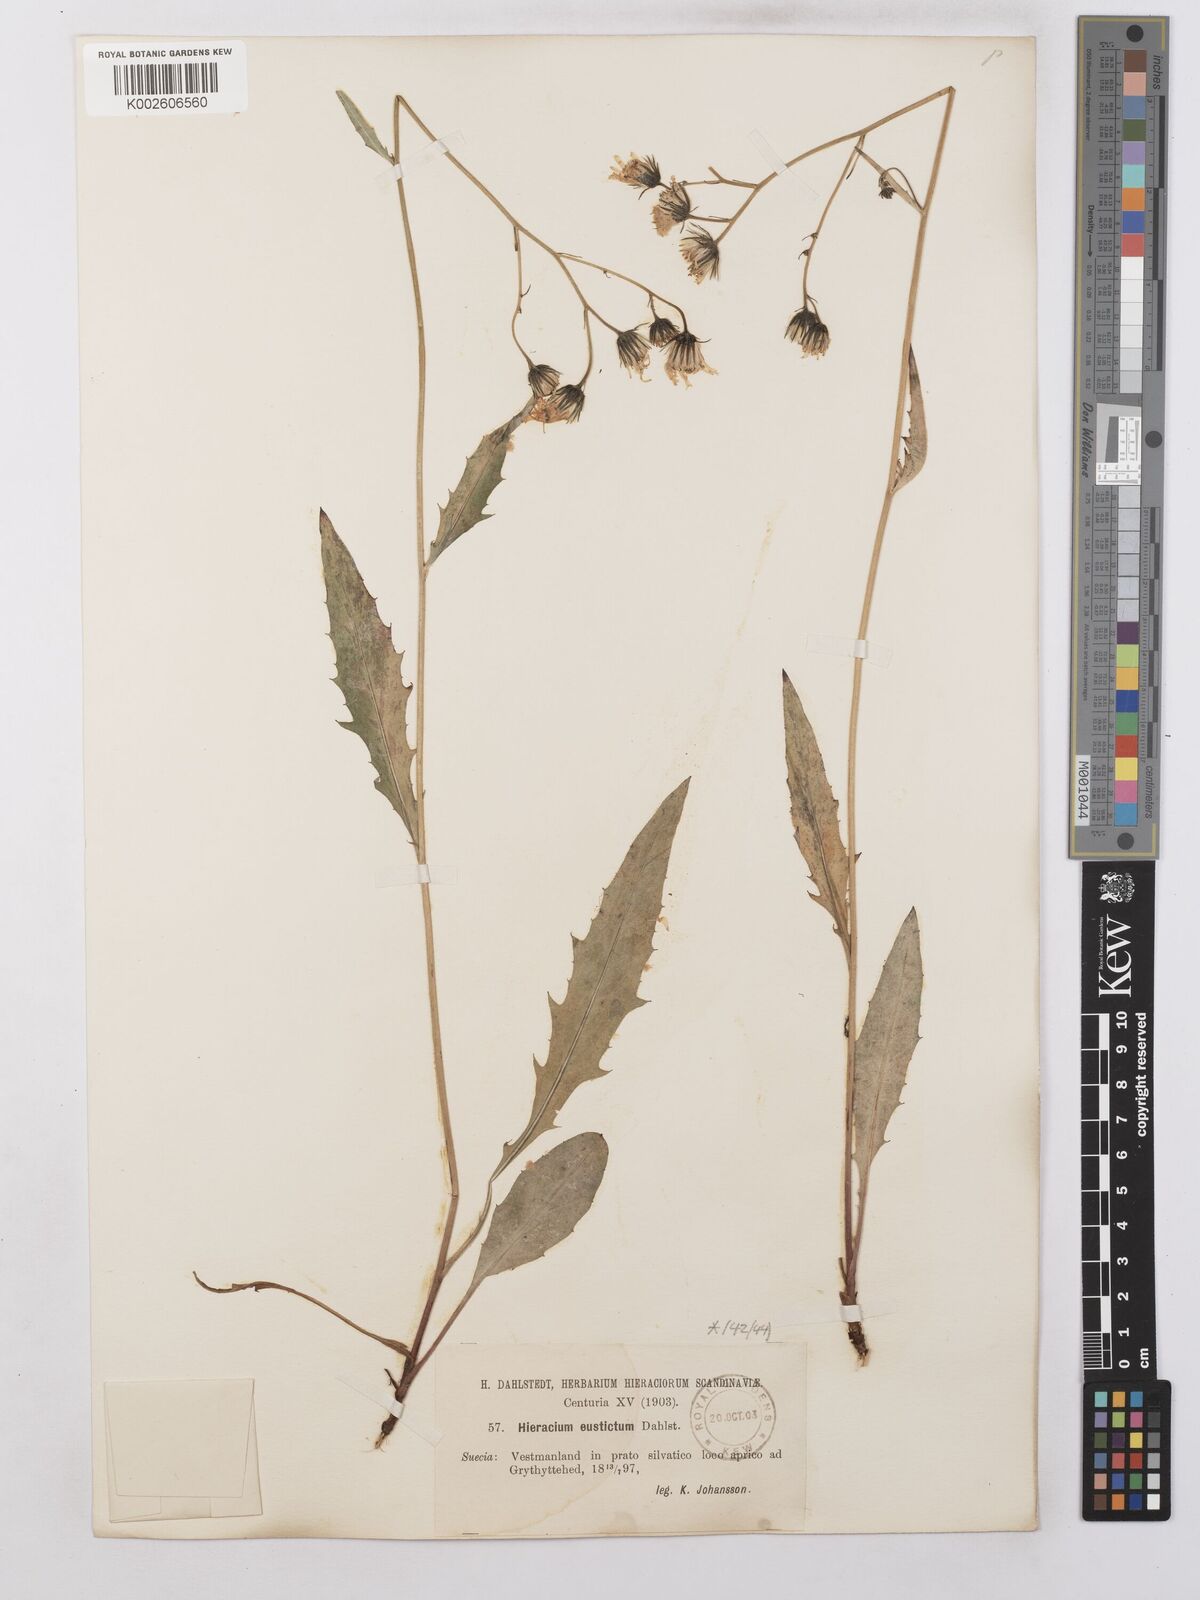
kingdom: Plantae
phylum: Tracheophyta
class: Magnoliopsida
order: Asterales
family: Asteraceae
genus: Hieracium
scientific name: Hieracium lachenalii
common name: Common hawkweed
